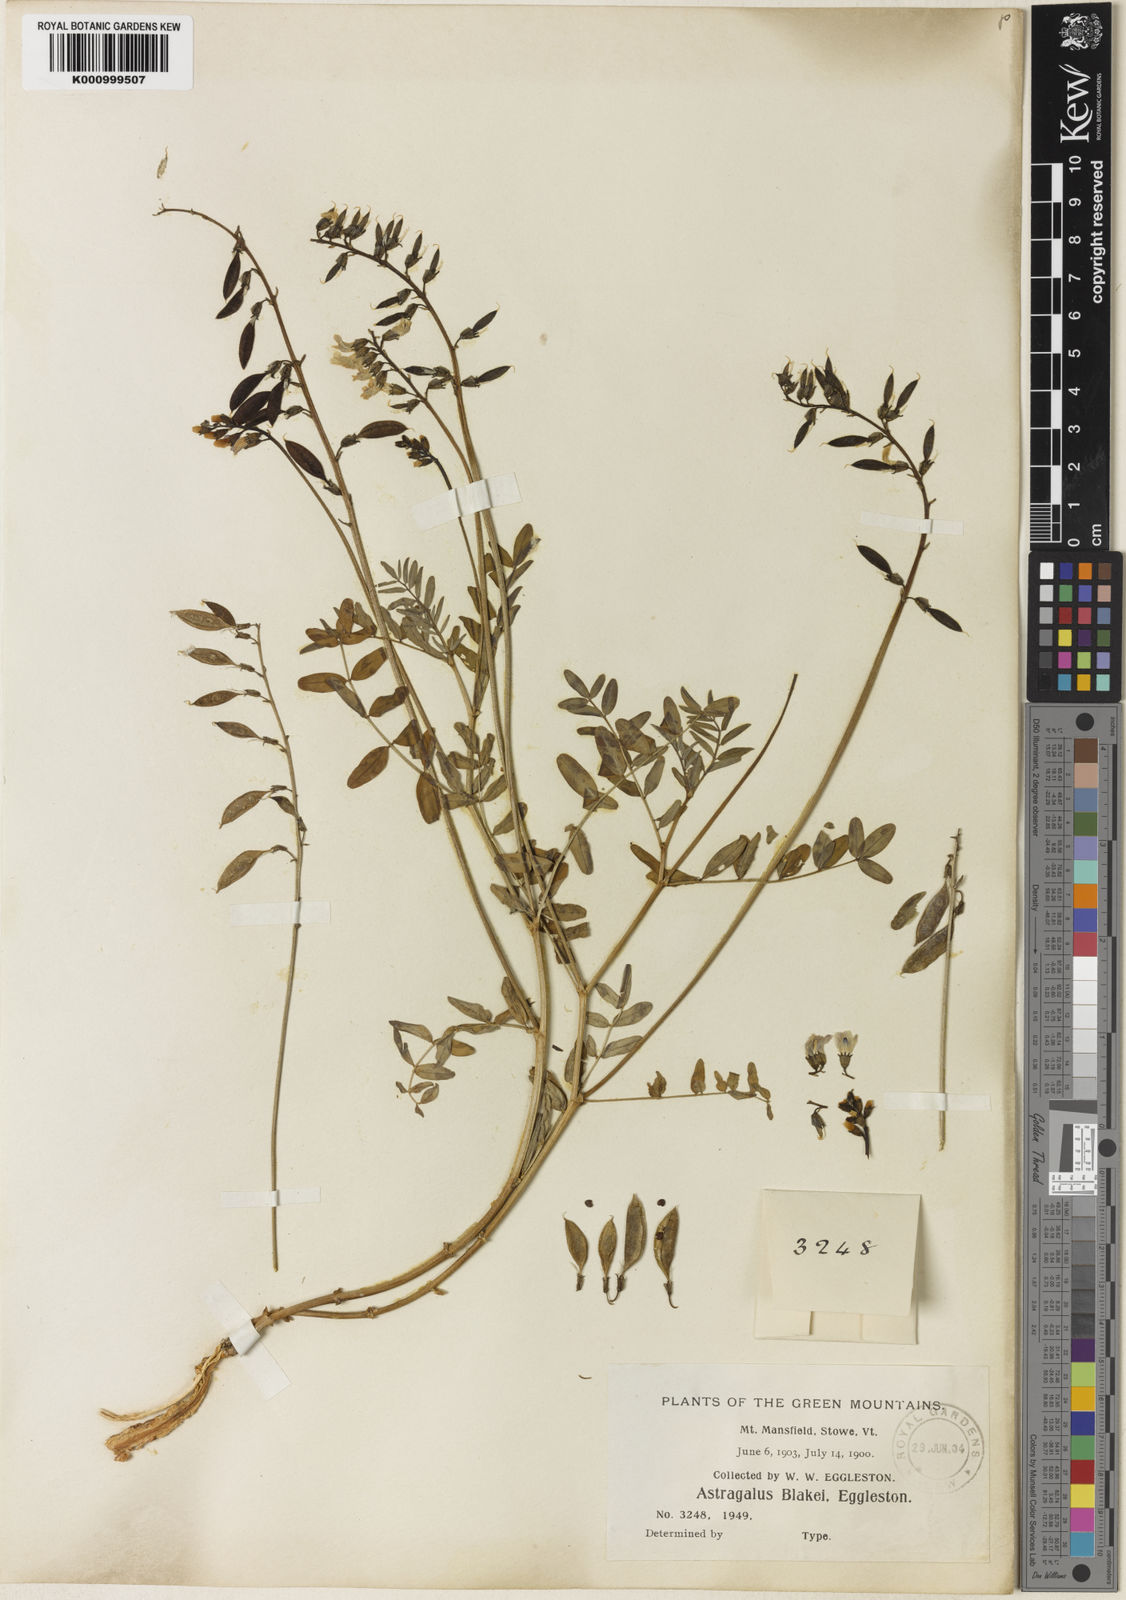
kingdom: Plantae
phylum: Tracheophyta
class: Magnoliopsida
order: Fabales
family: Fabaceae
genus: Astragalus
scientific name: Astragalus robbinsii
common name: Robbins' milk-vetch
